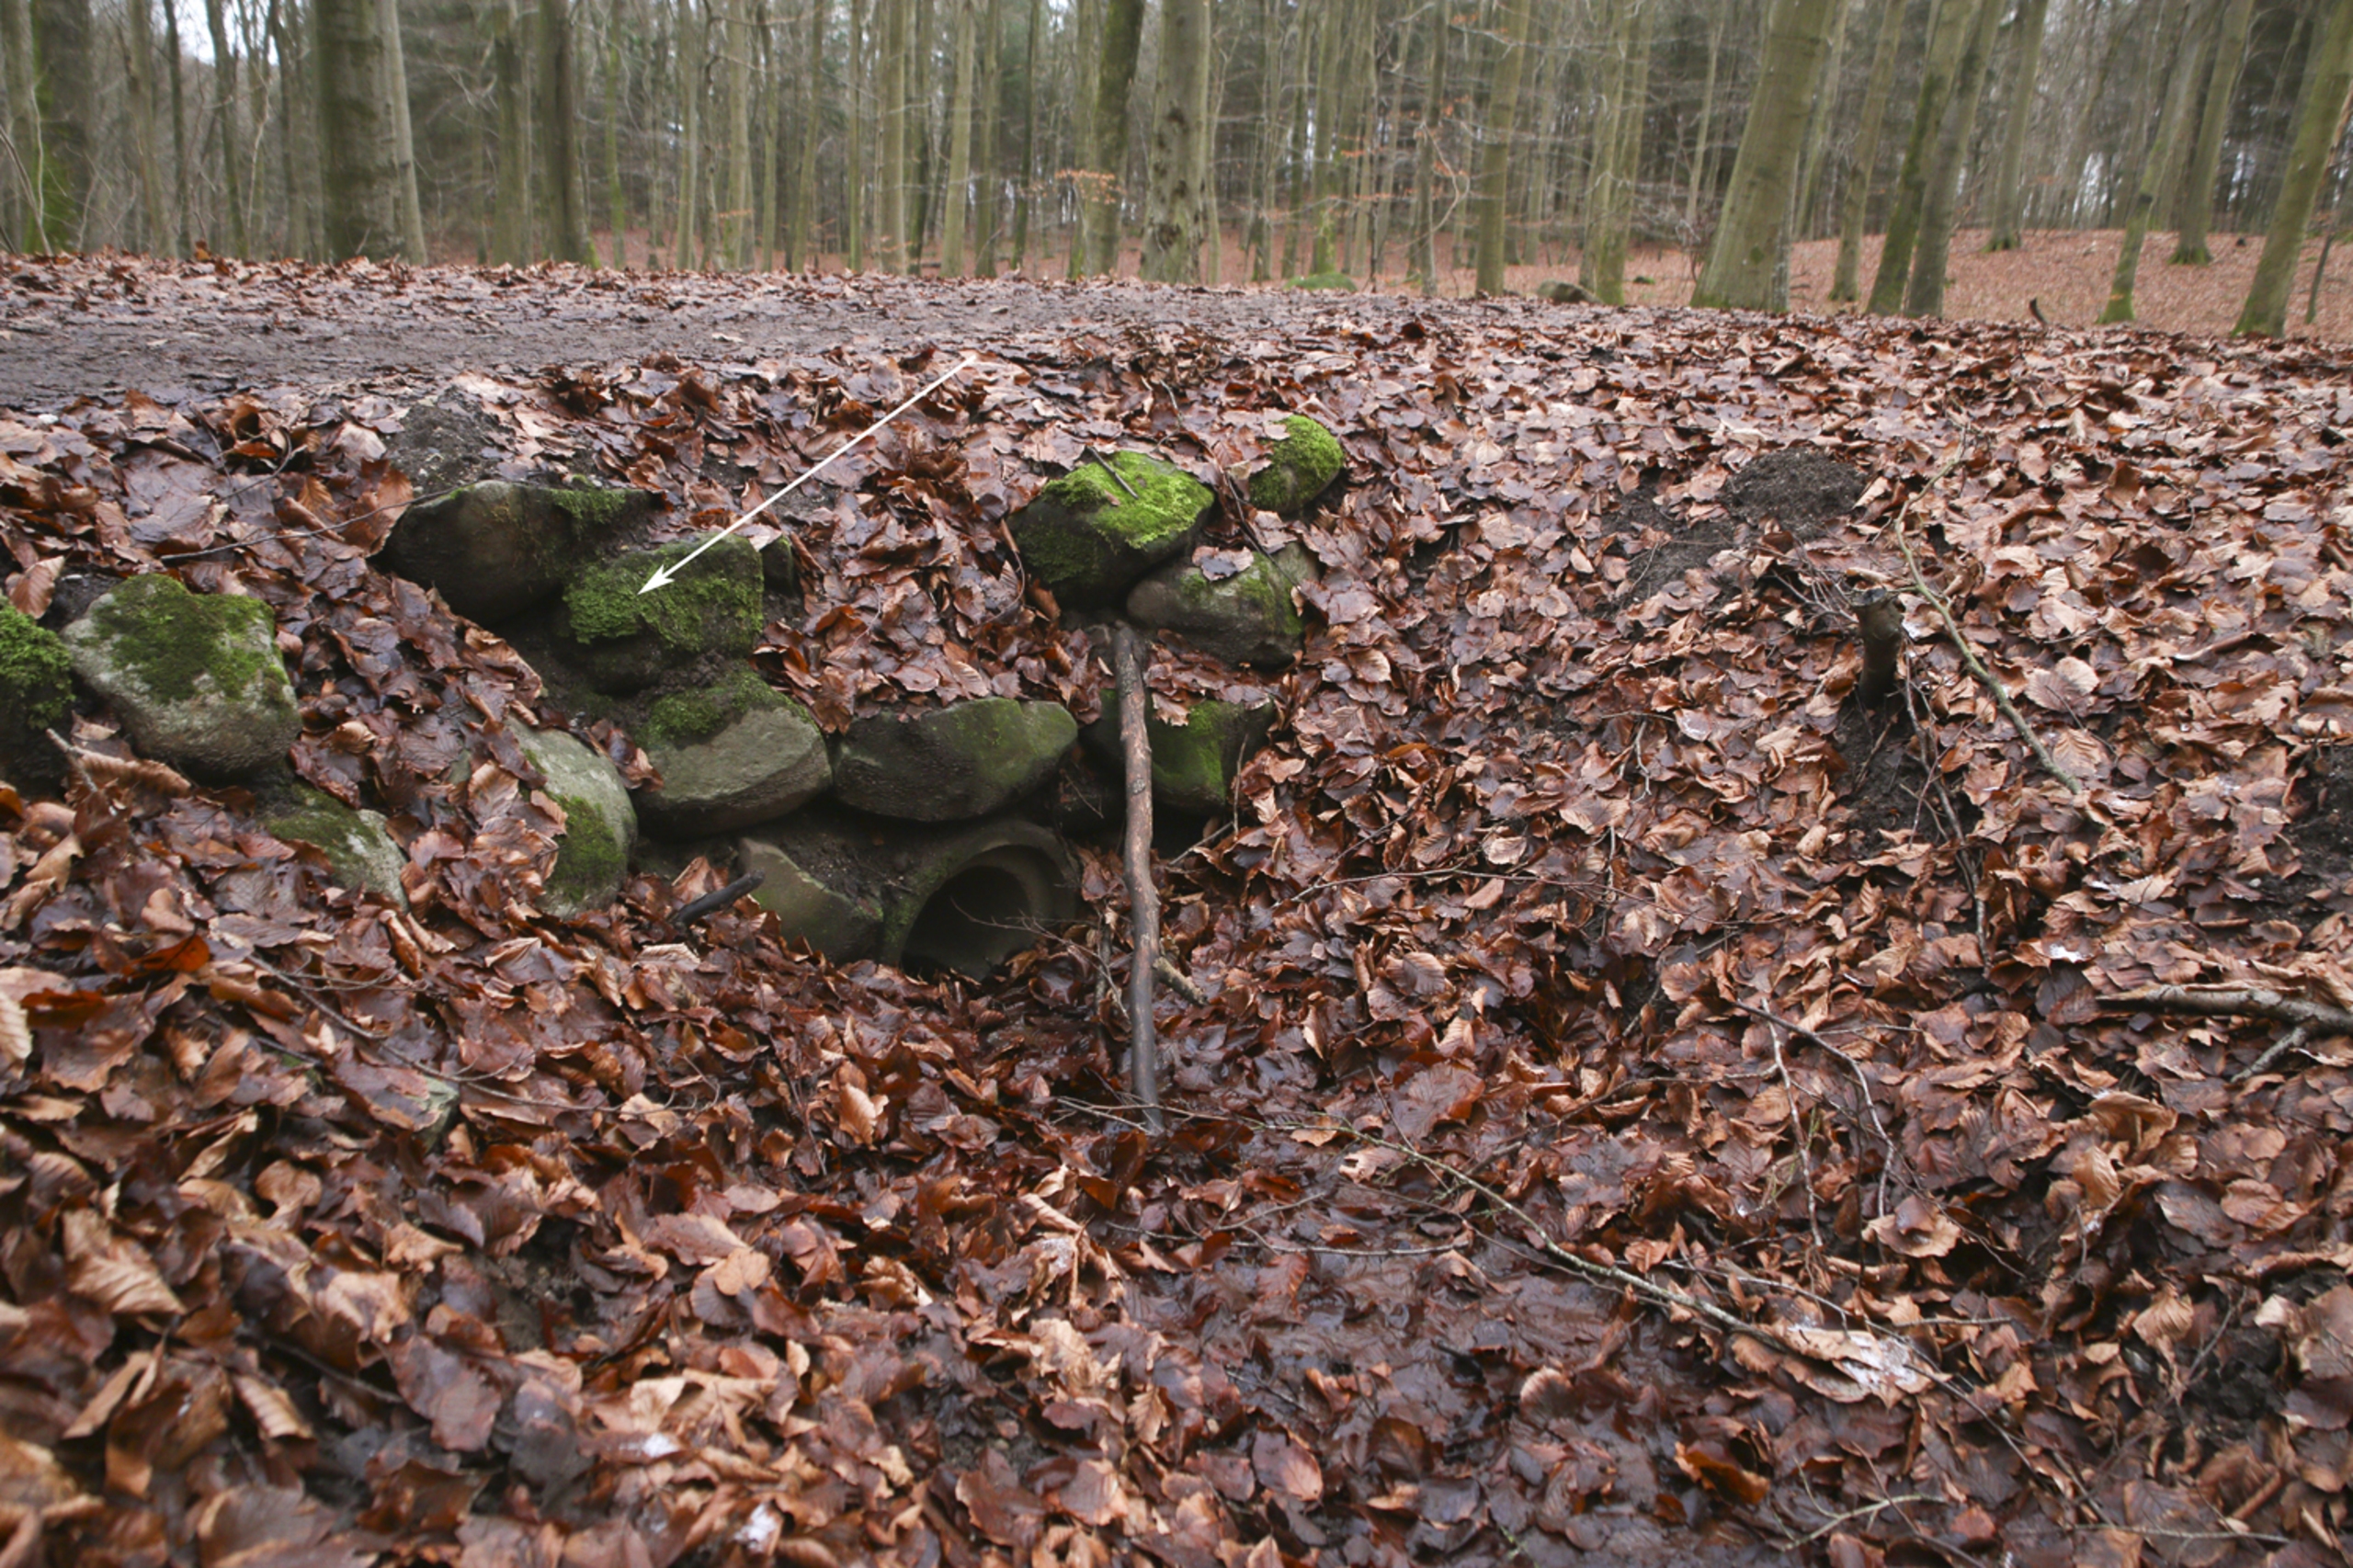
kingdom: Plantae
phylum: Bryophyta
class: Bryopsida
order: Hypnales
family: Taxiphyllaceae
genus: Taxiphyllum
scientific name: Taxiphyllum wissgrillii
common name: Tandet trådmos
